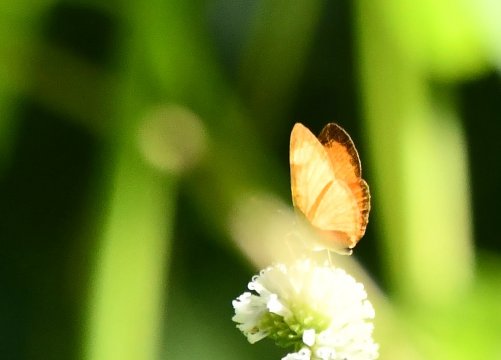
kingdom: Animalia
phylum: Arthropoda
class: Insecta
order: Lepidoptera
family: Nymphalidae
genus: Tegosa
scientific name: Tegosa anieta
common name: Black-bordered Crescent
